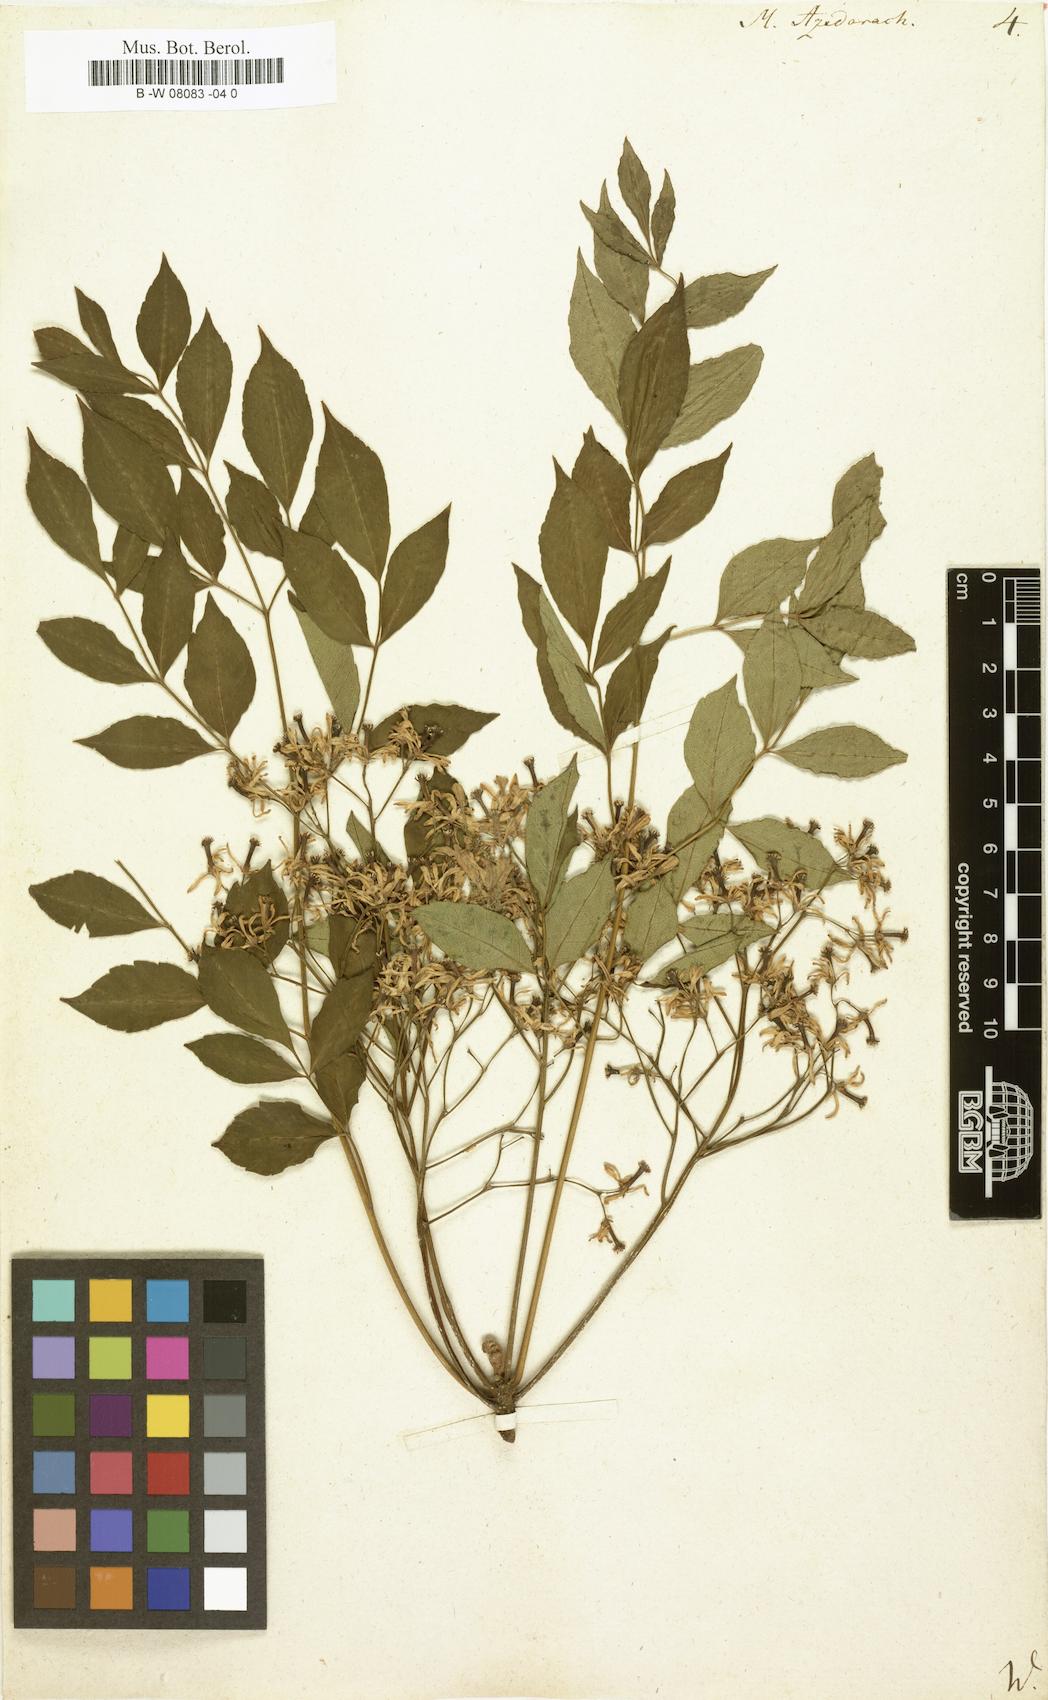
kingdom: Plantae
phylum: Tracheophyta
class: Magnoliopsida
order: Sapindales
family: Meliaceae
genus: Melia
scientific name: Melia azedarach
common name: Chinaberrytree
